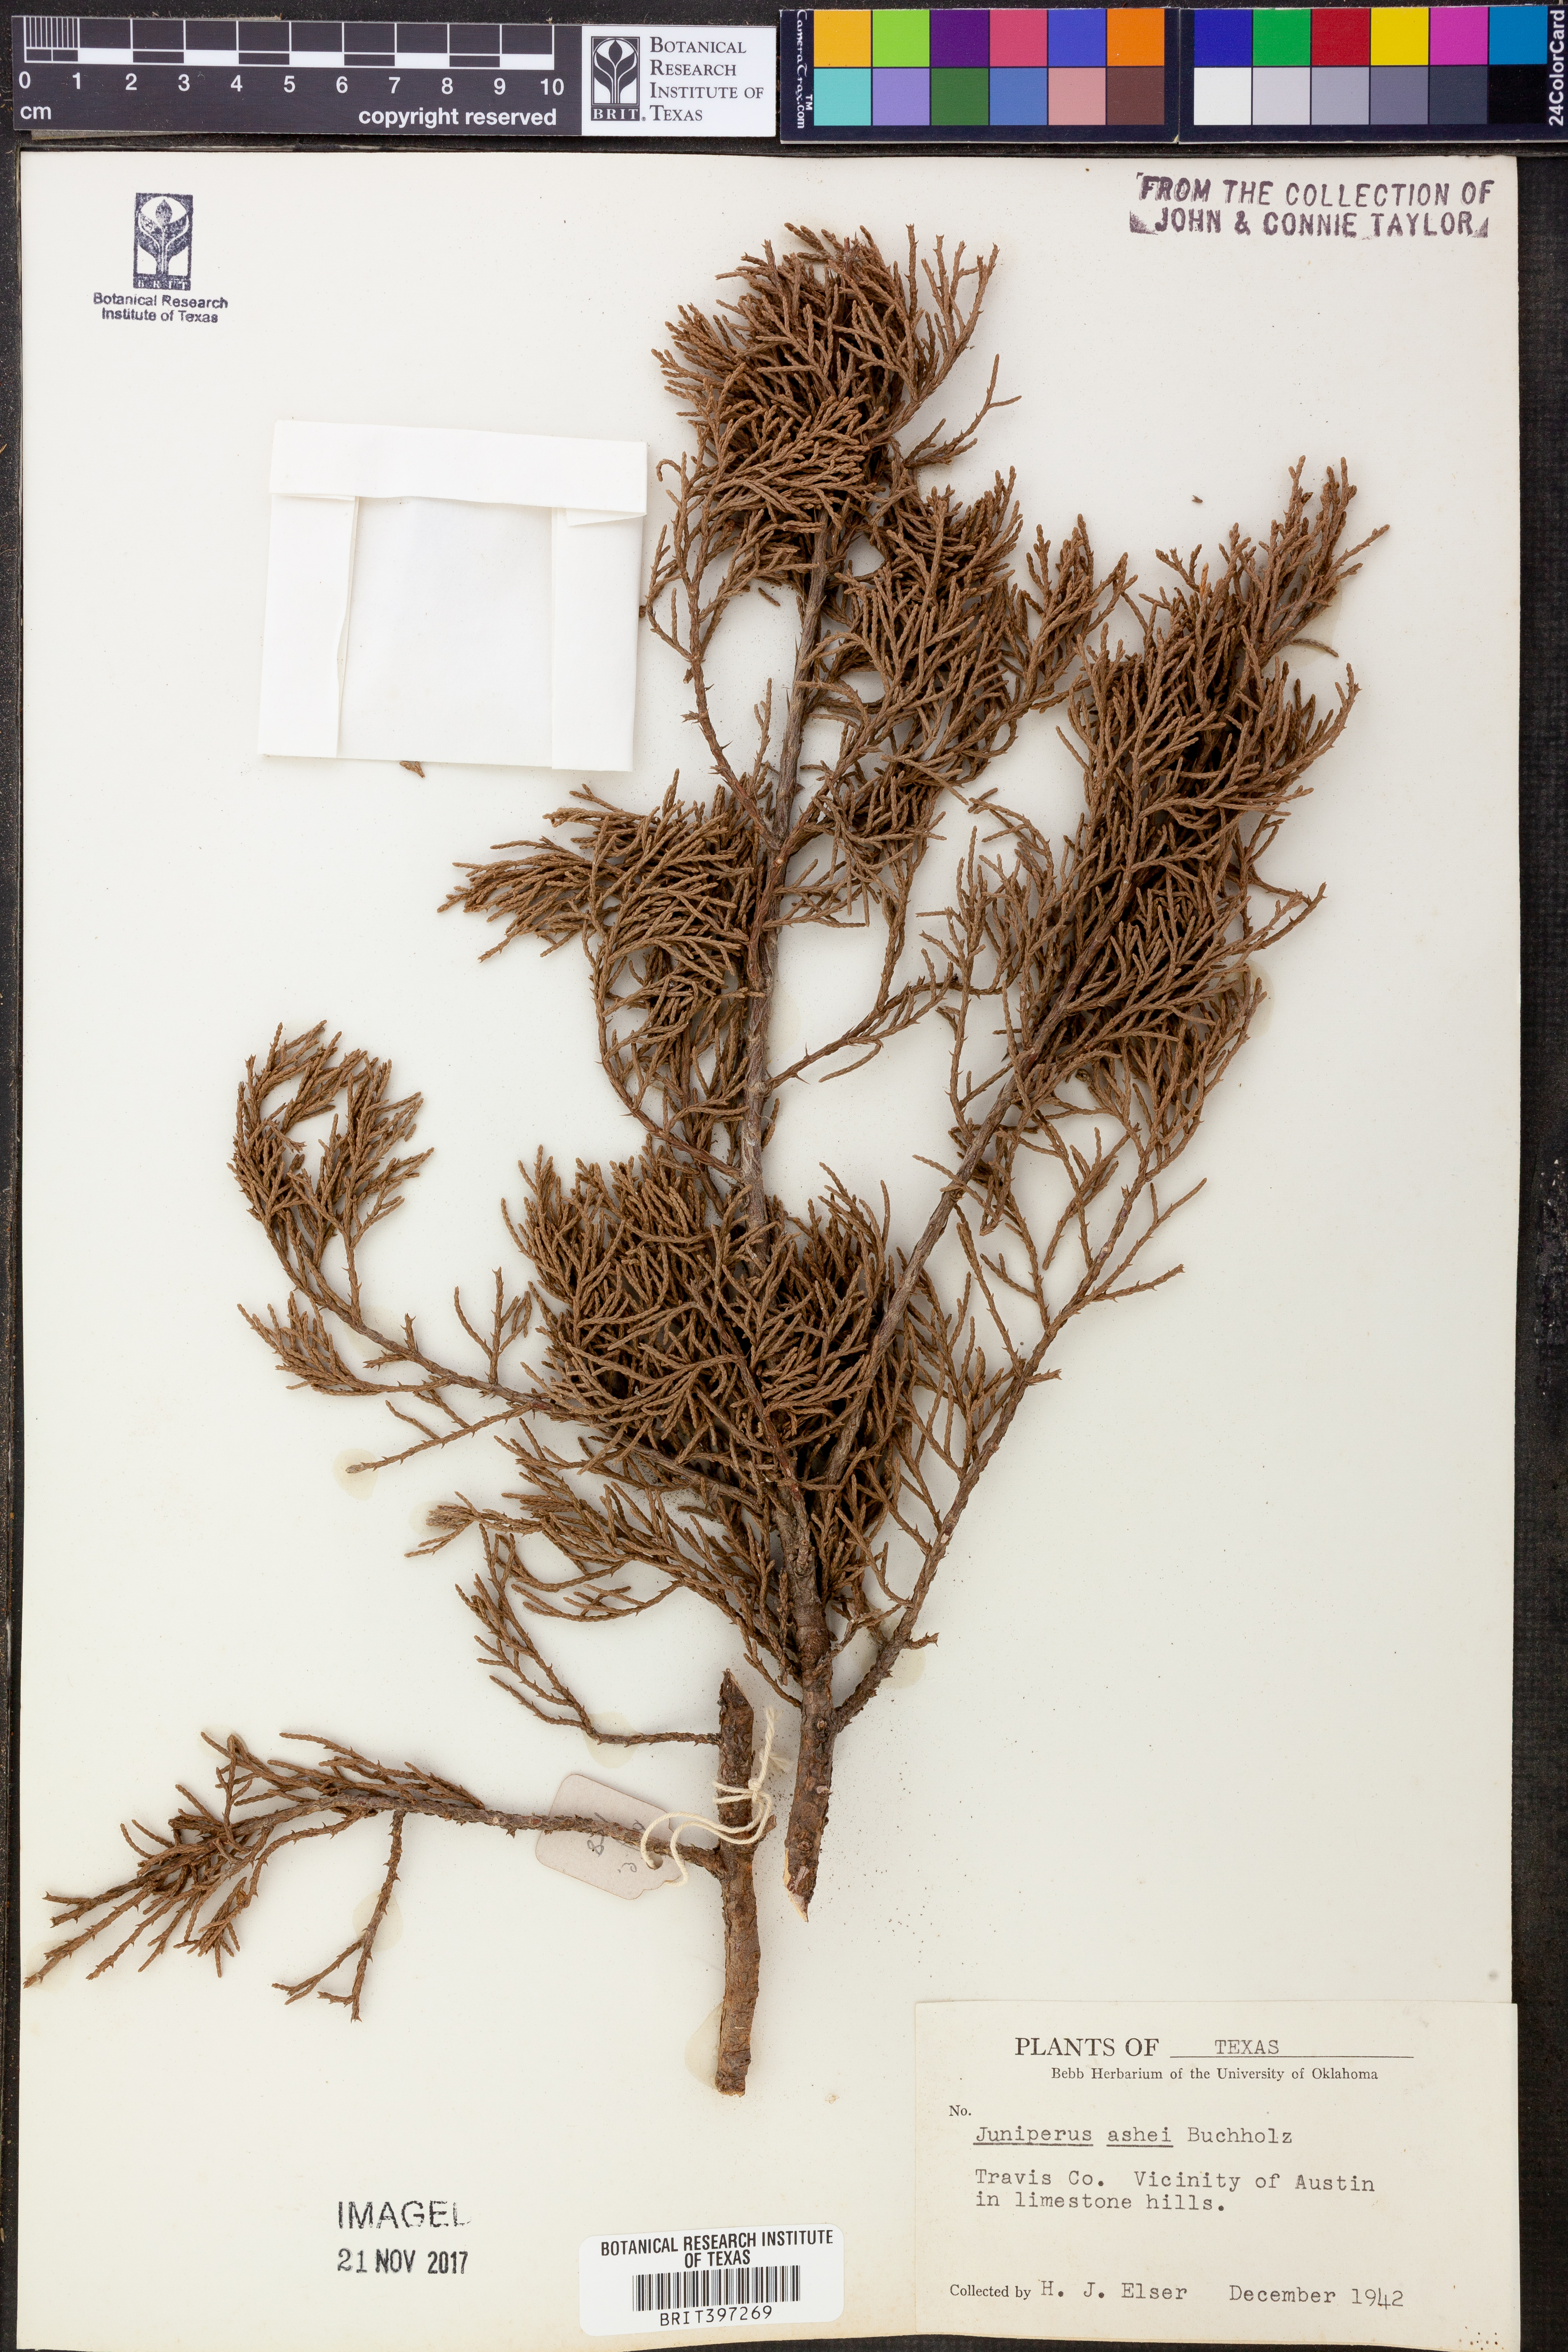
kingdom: Plantae
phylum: Tracheophyta
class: Pinopsida
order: Pinales
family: Cupressaceae
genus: Juniperus
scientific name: Juniperus ashei
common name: Mexican juniper
